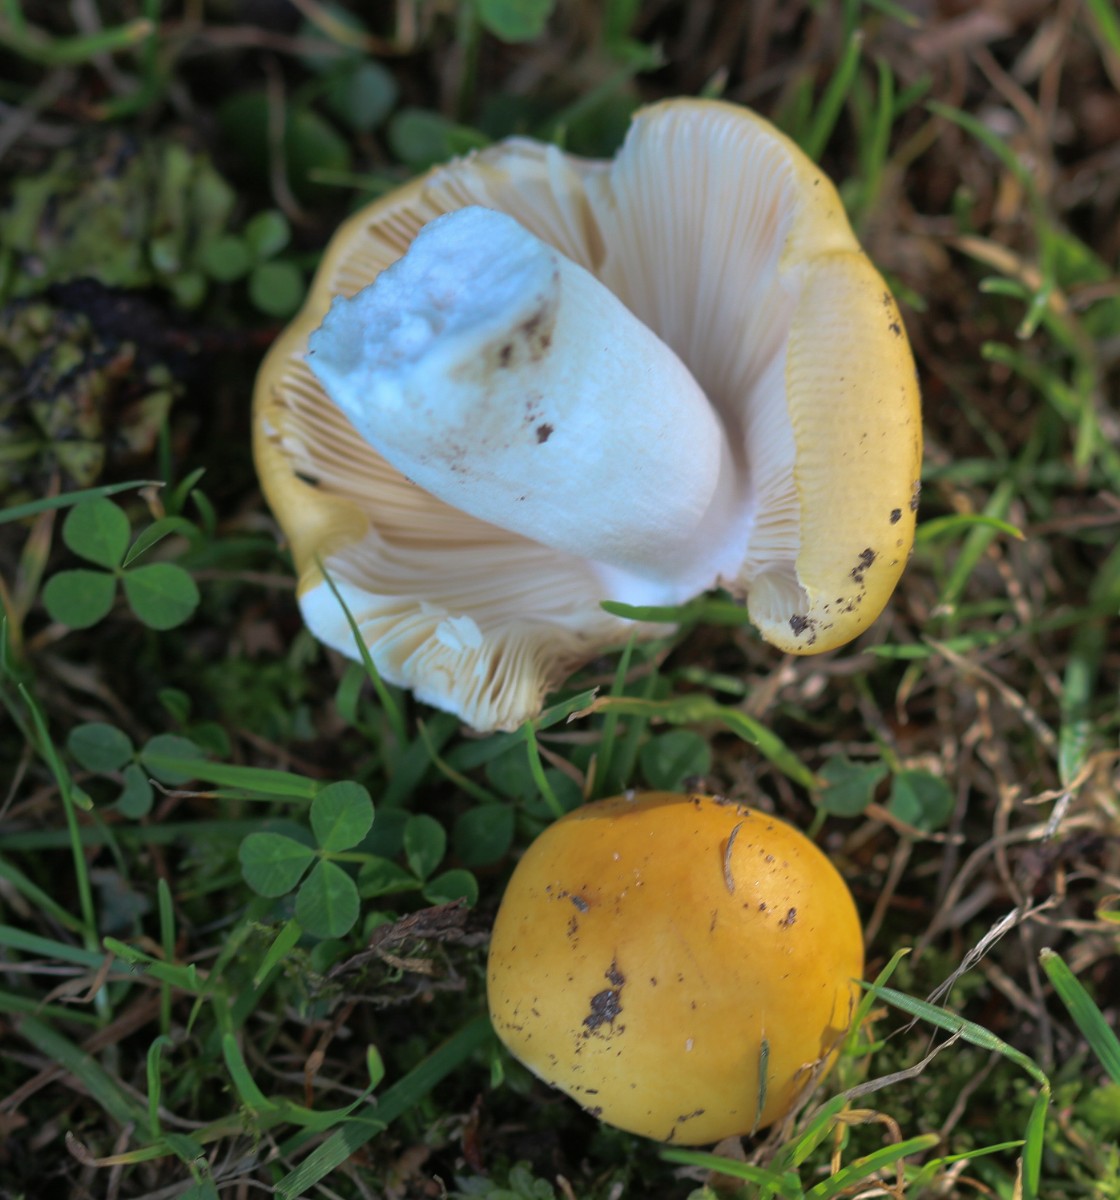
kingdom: Fungi
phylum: Basidiomycota
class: Agaricomycetes
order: Russulales
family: Russulaceae
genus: Russula
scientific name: Russula risigallina
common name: abrikos-skørhat
